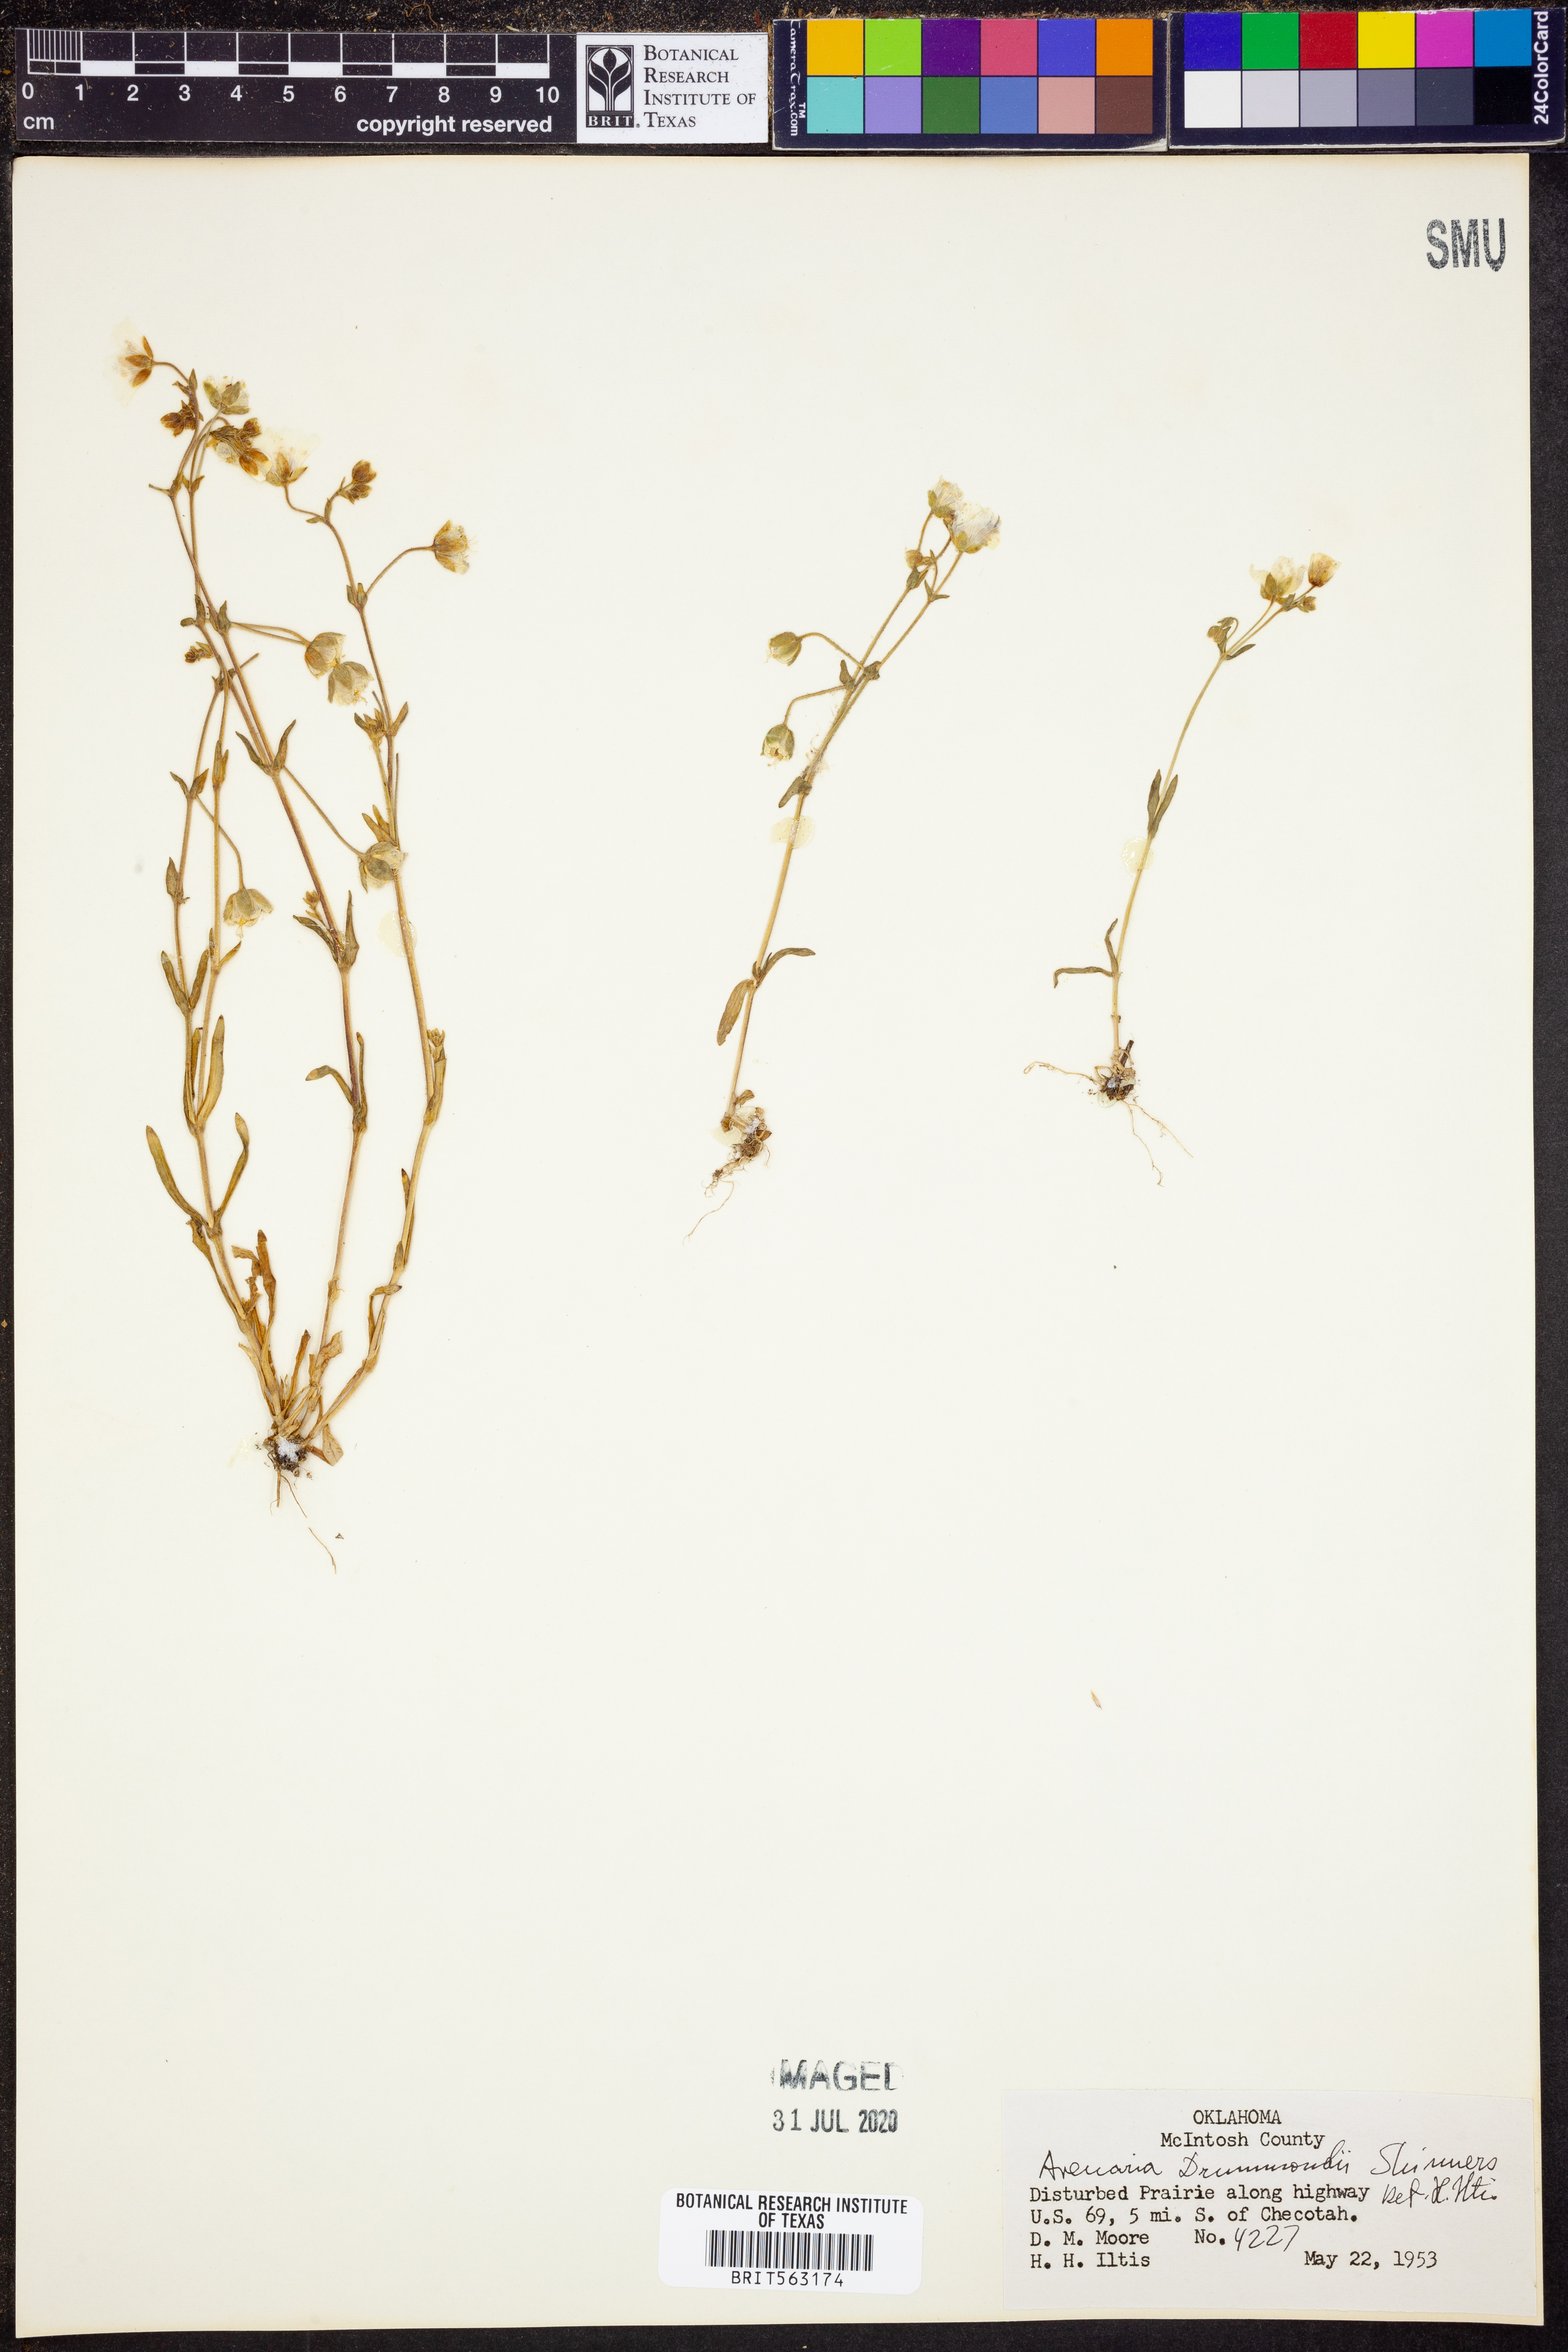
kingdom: Plantae
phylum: Tracheophyta
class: Magnoliopsida
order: Caryophyllales
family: Caryophyllaceae
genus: Geocarpon
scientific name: Geocarpon nuttallii
